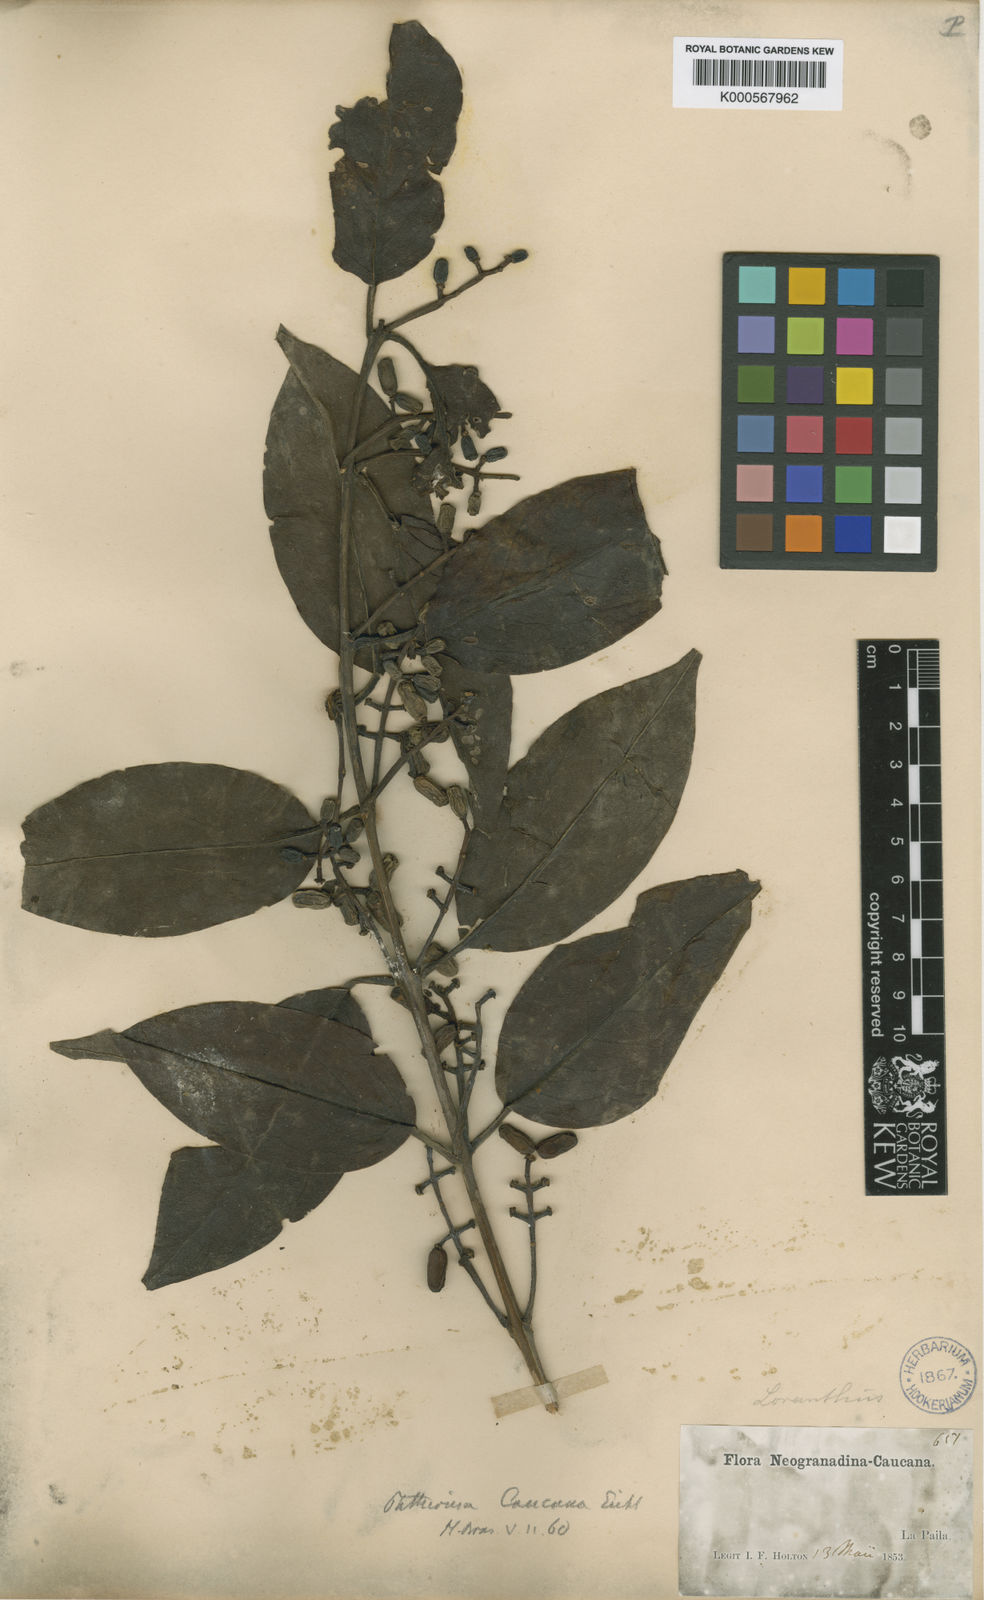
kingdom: Plantae
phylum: Tracheophyta
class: Magnoliopsida
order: Santalales
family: Loranthaceae
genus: Passovia
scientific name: Passovia pedunculata
